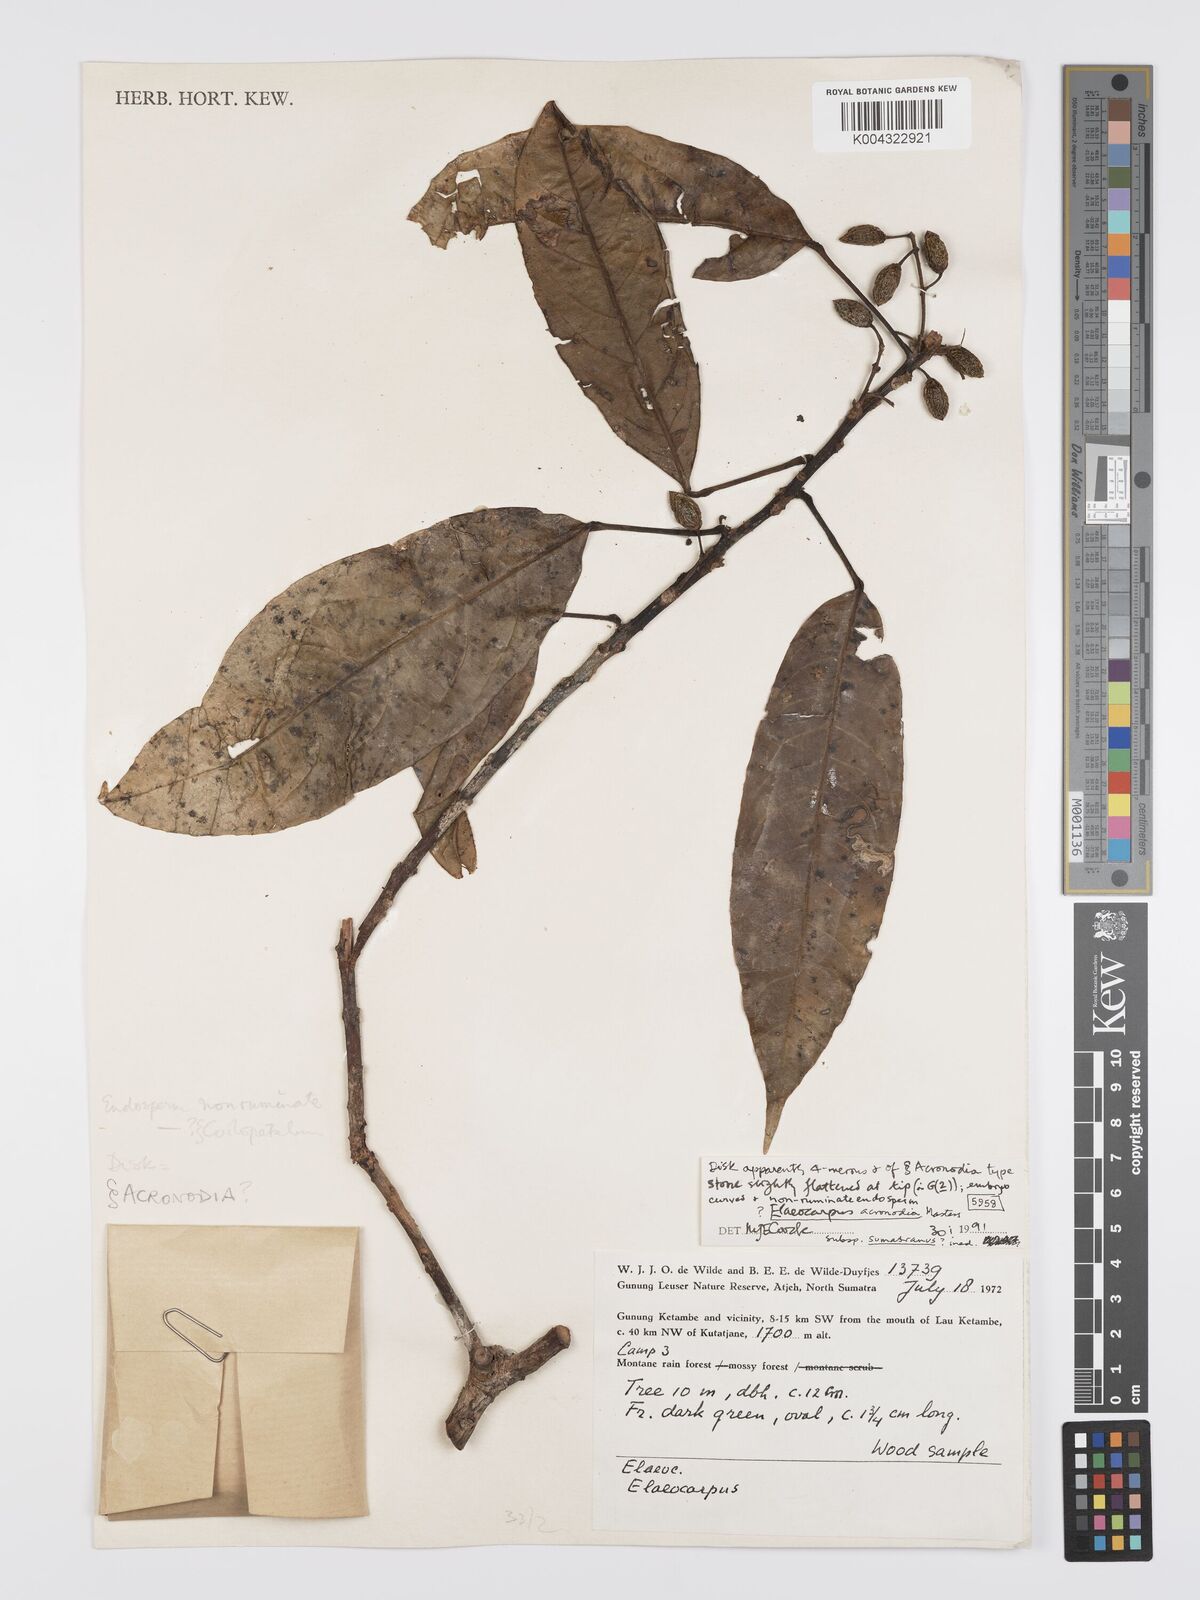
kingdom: Plantae
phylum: Tracheophyta
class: Magnoliopsida
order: Oxalidales
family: Elaeocarpaceae
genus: Elaeocarpus
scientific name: Elaeocarpus acronodia
